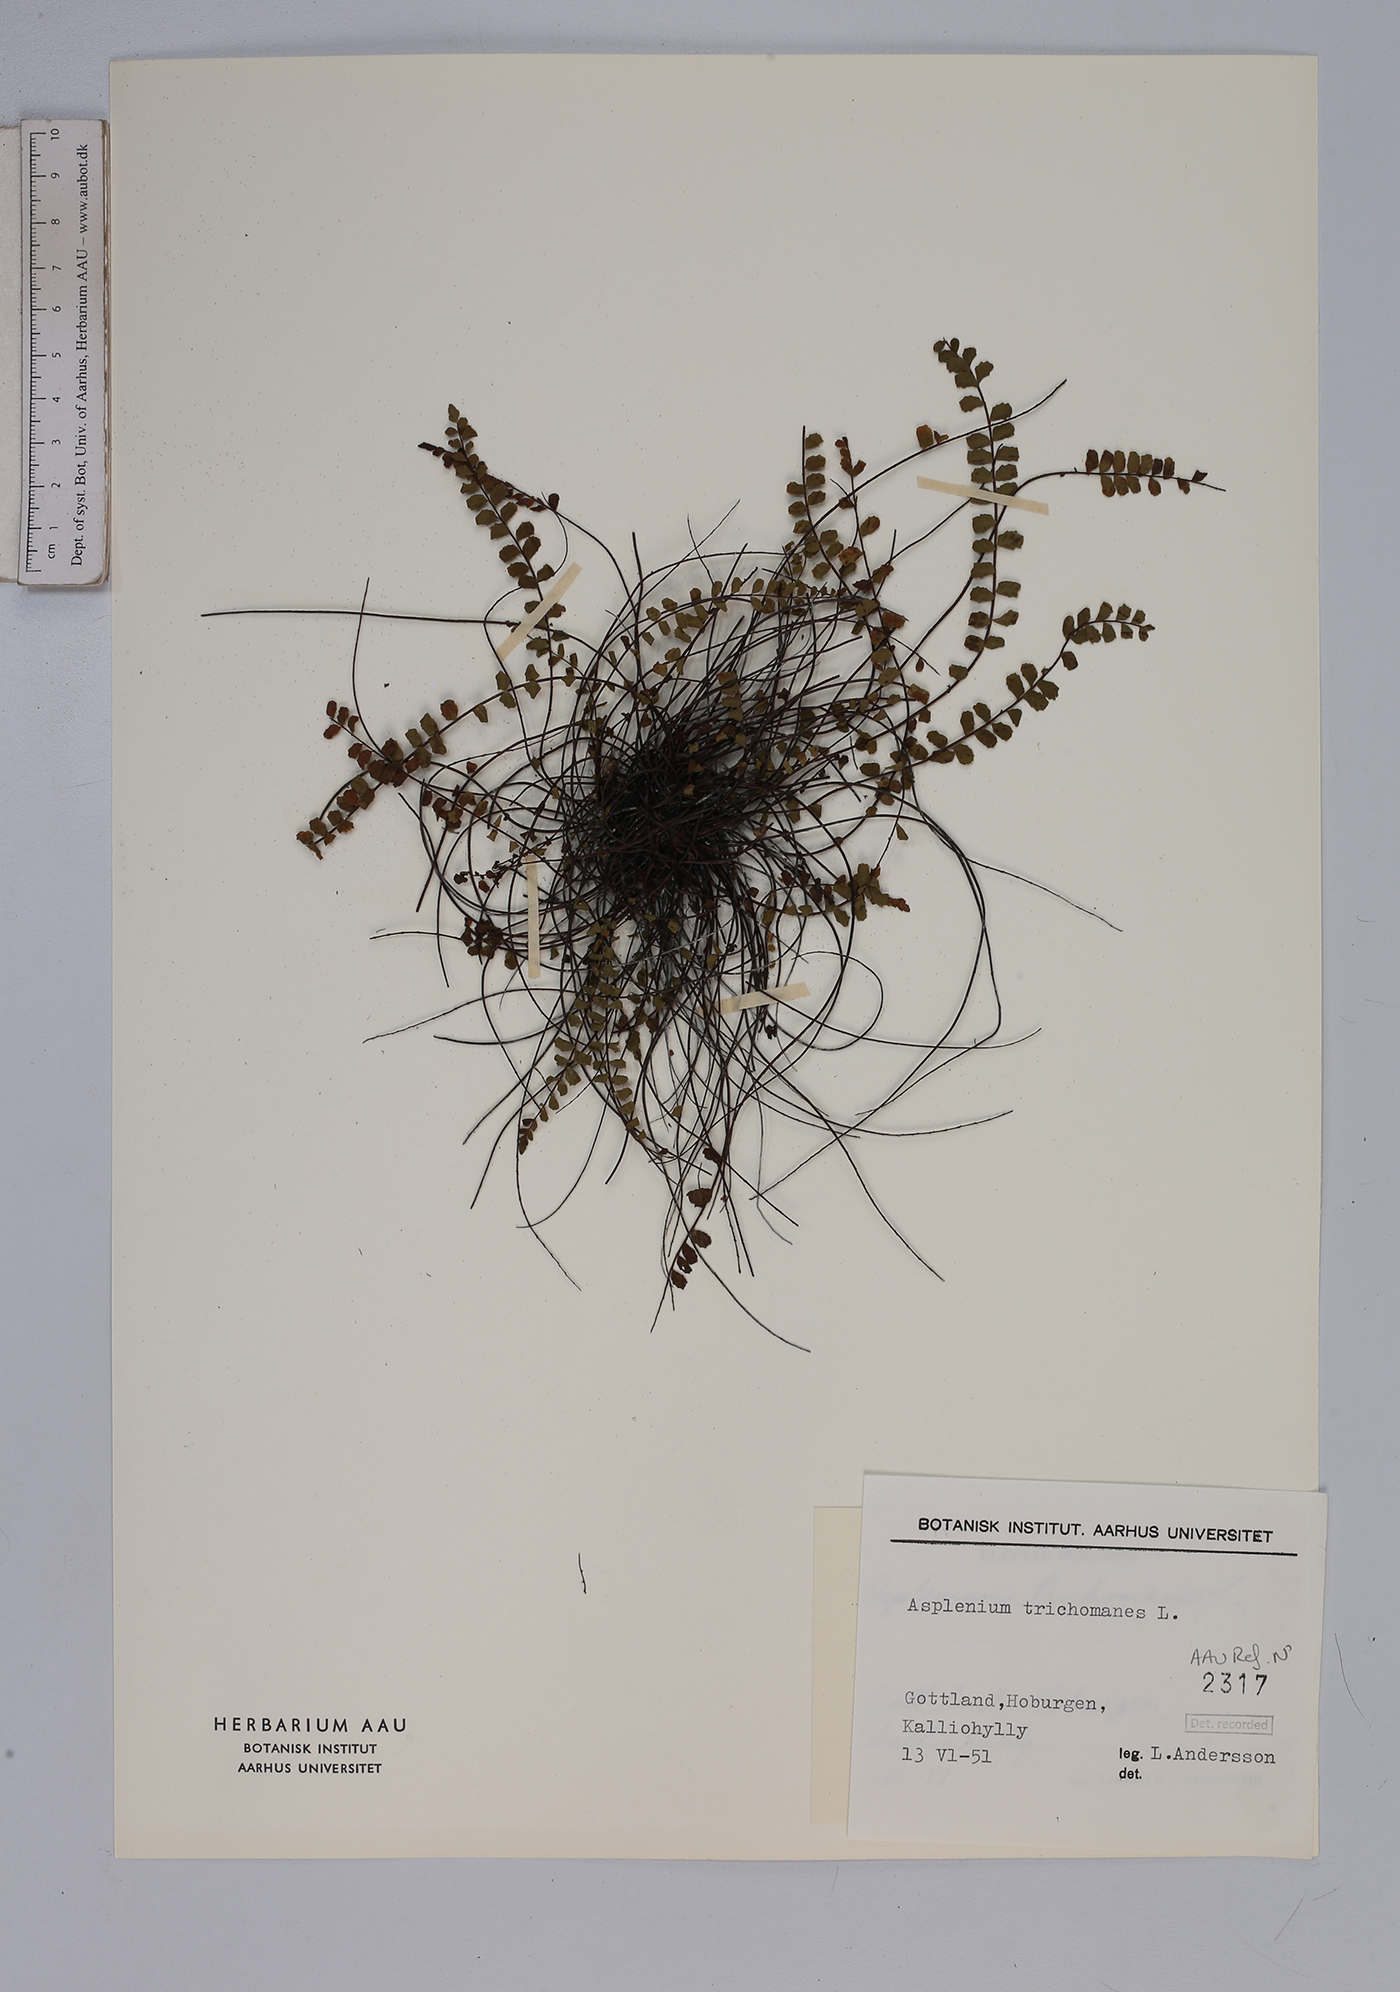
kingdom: Plantae
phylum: Tracheophyta
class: Polypodiopsida
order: Polypodiales
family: Aspleniaceae
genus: Asplenium
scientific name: Asplenium trichomanes
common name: Maidenhair spleenwort
